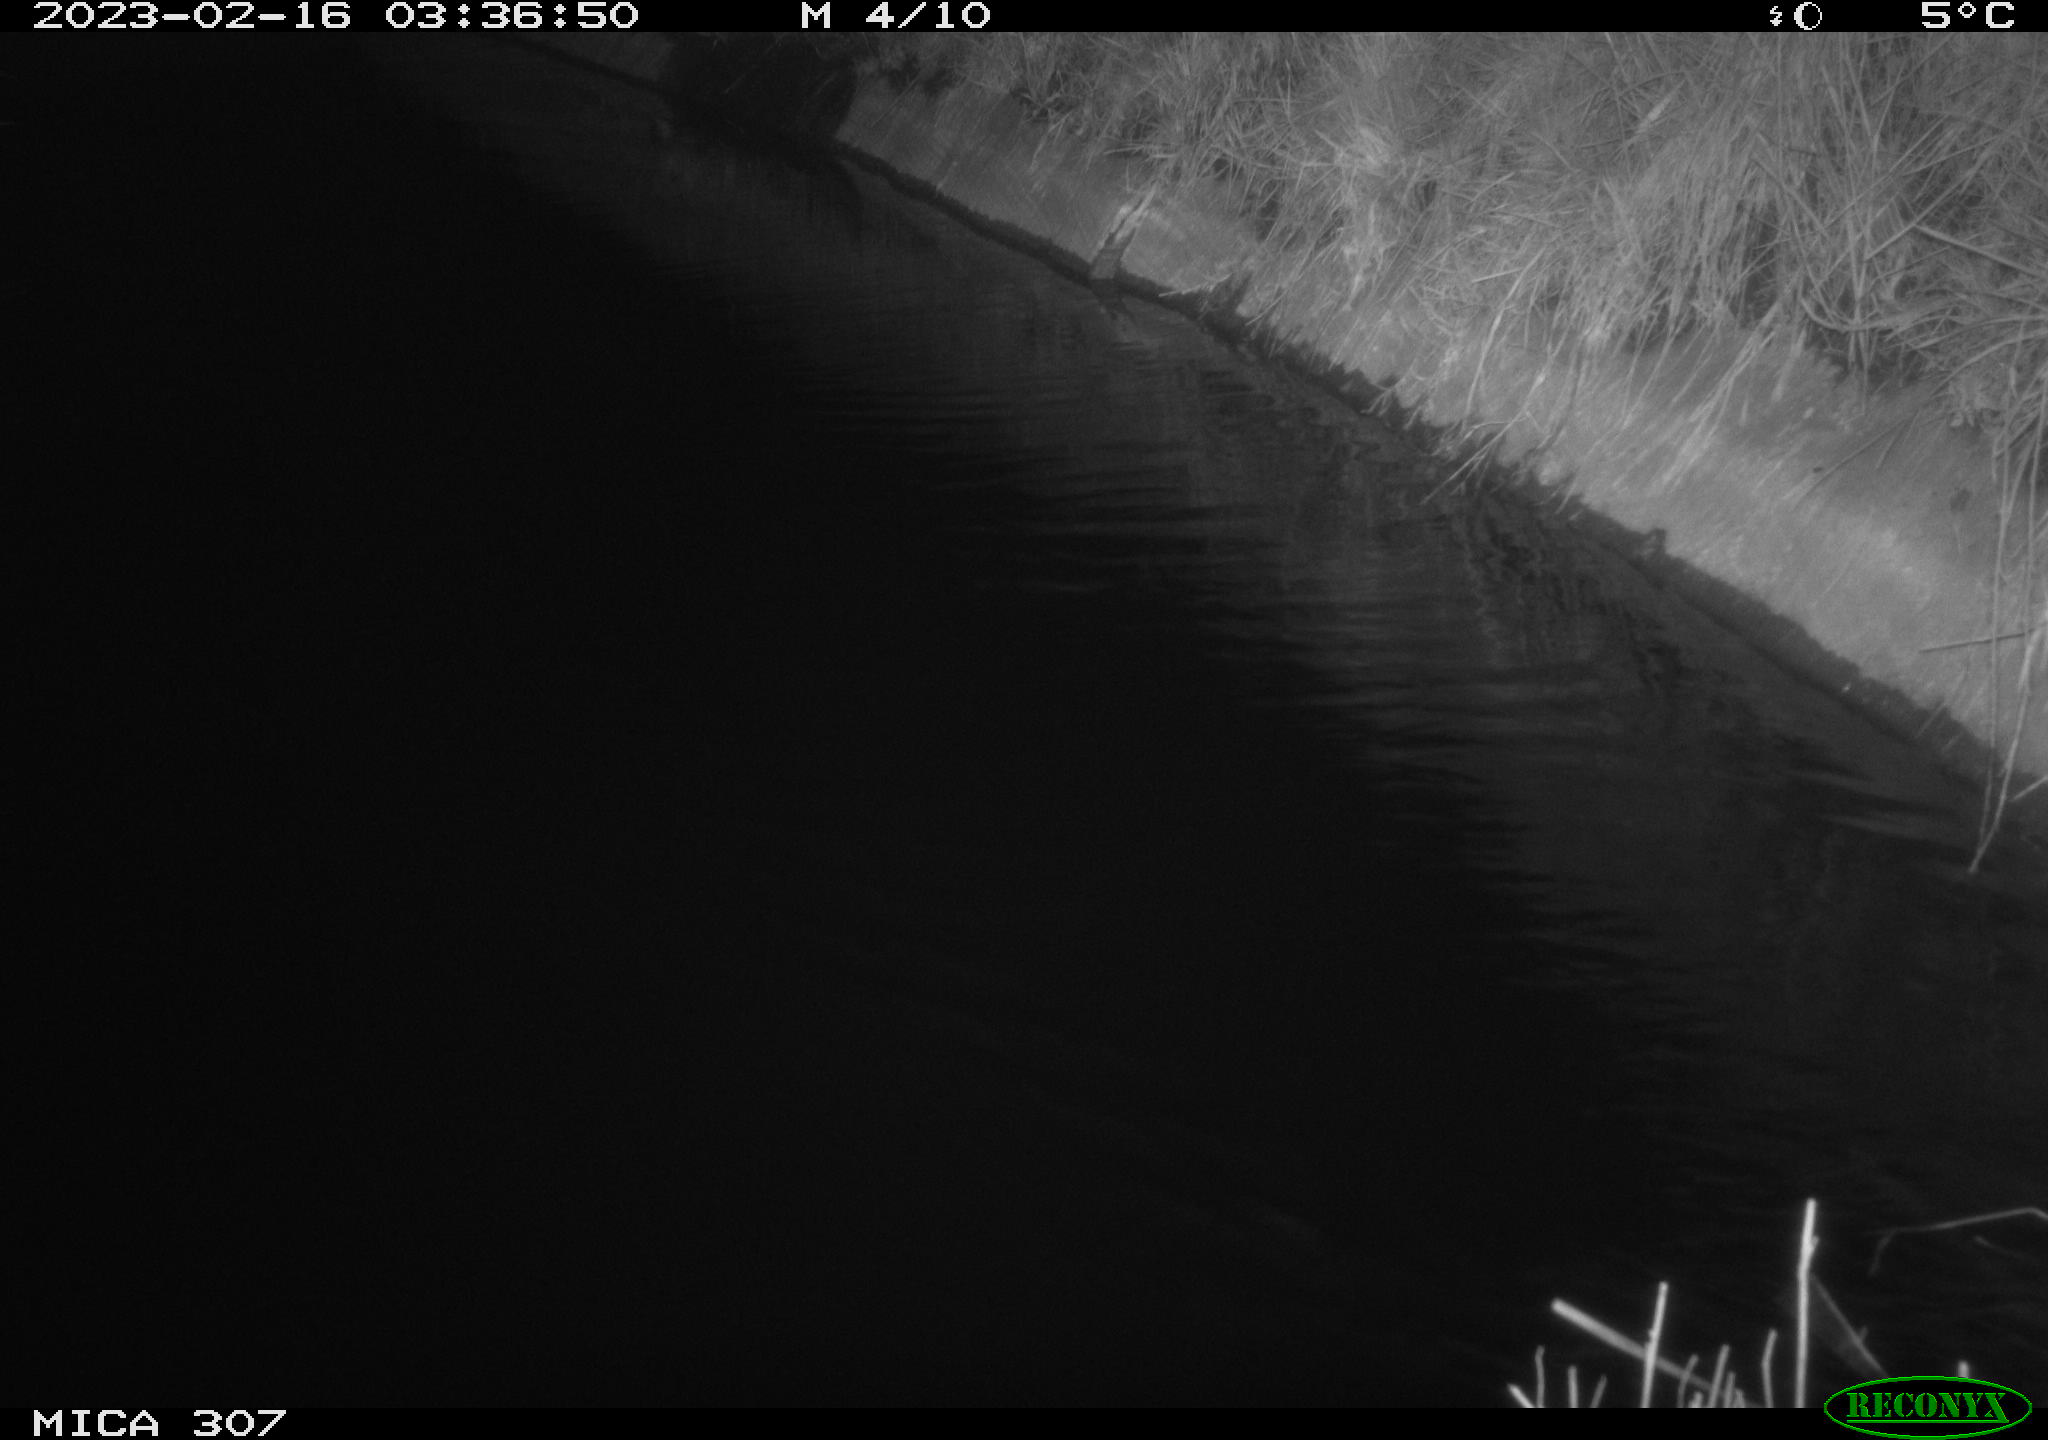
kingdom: Animalia
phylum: Chordata
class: Mammalia
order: Rodentia
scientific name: Rodentia
